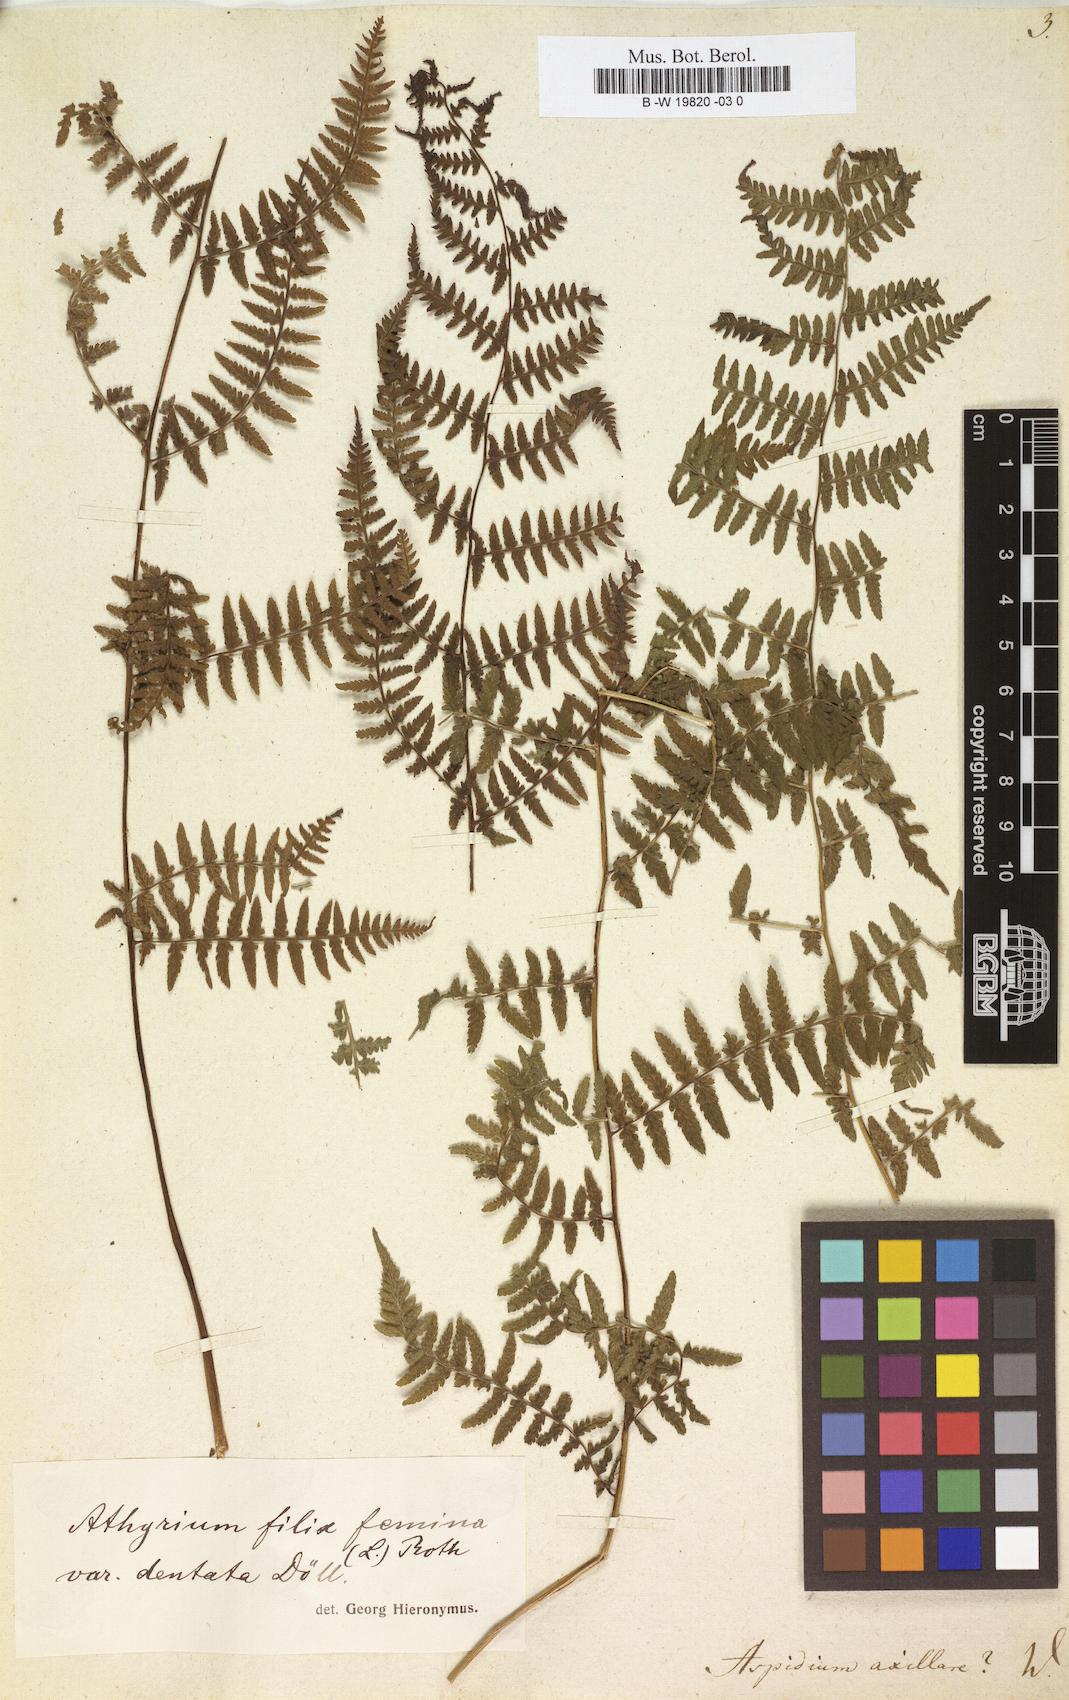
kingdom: Plantae
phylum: Tracheophyta
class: Polypodiopsida
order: Polypodiales
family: Athyriaceae
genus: Athyrium
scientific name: Athyrium filix-femina
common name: Lady fern
